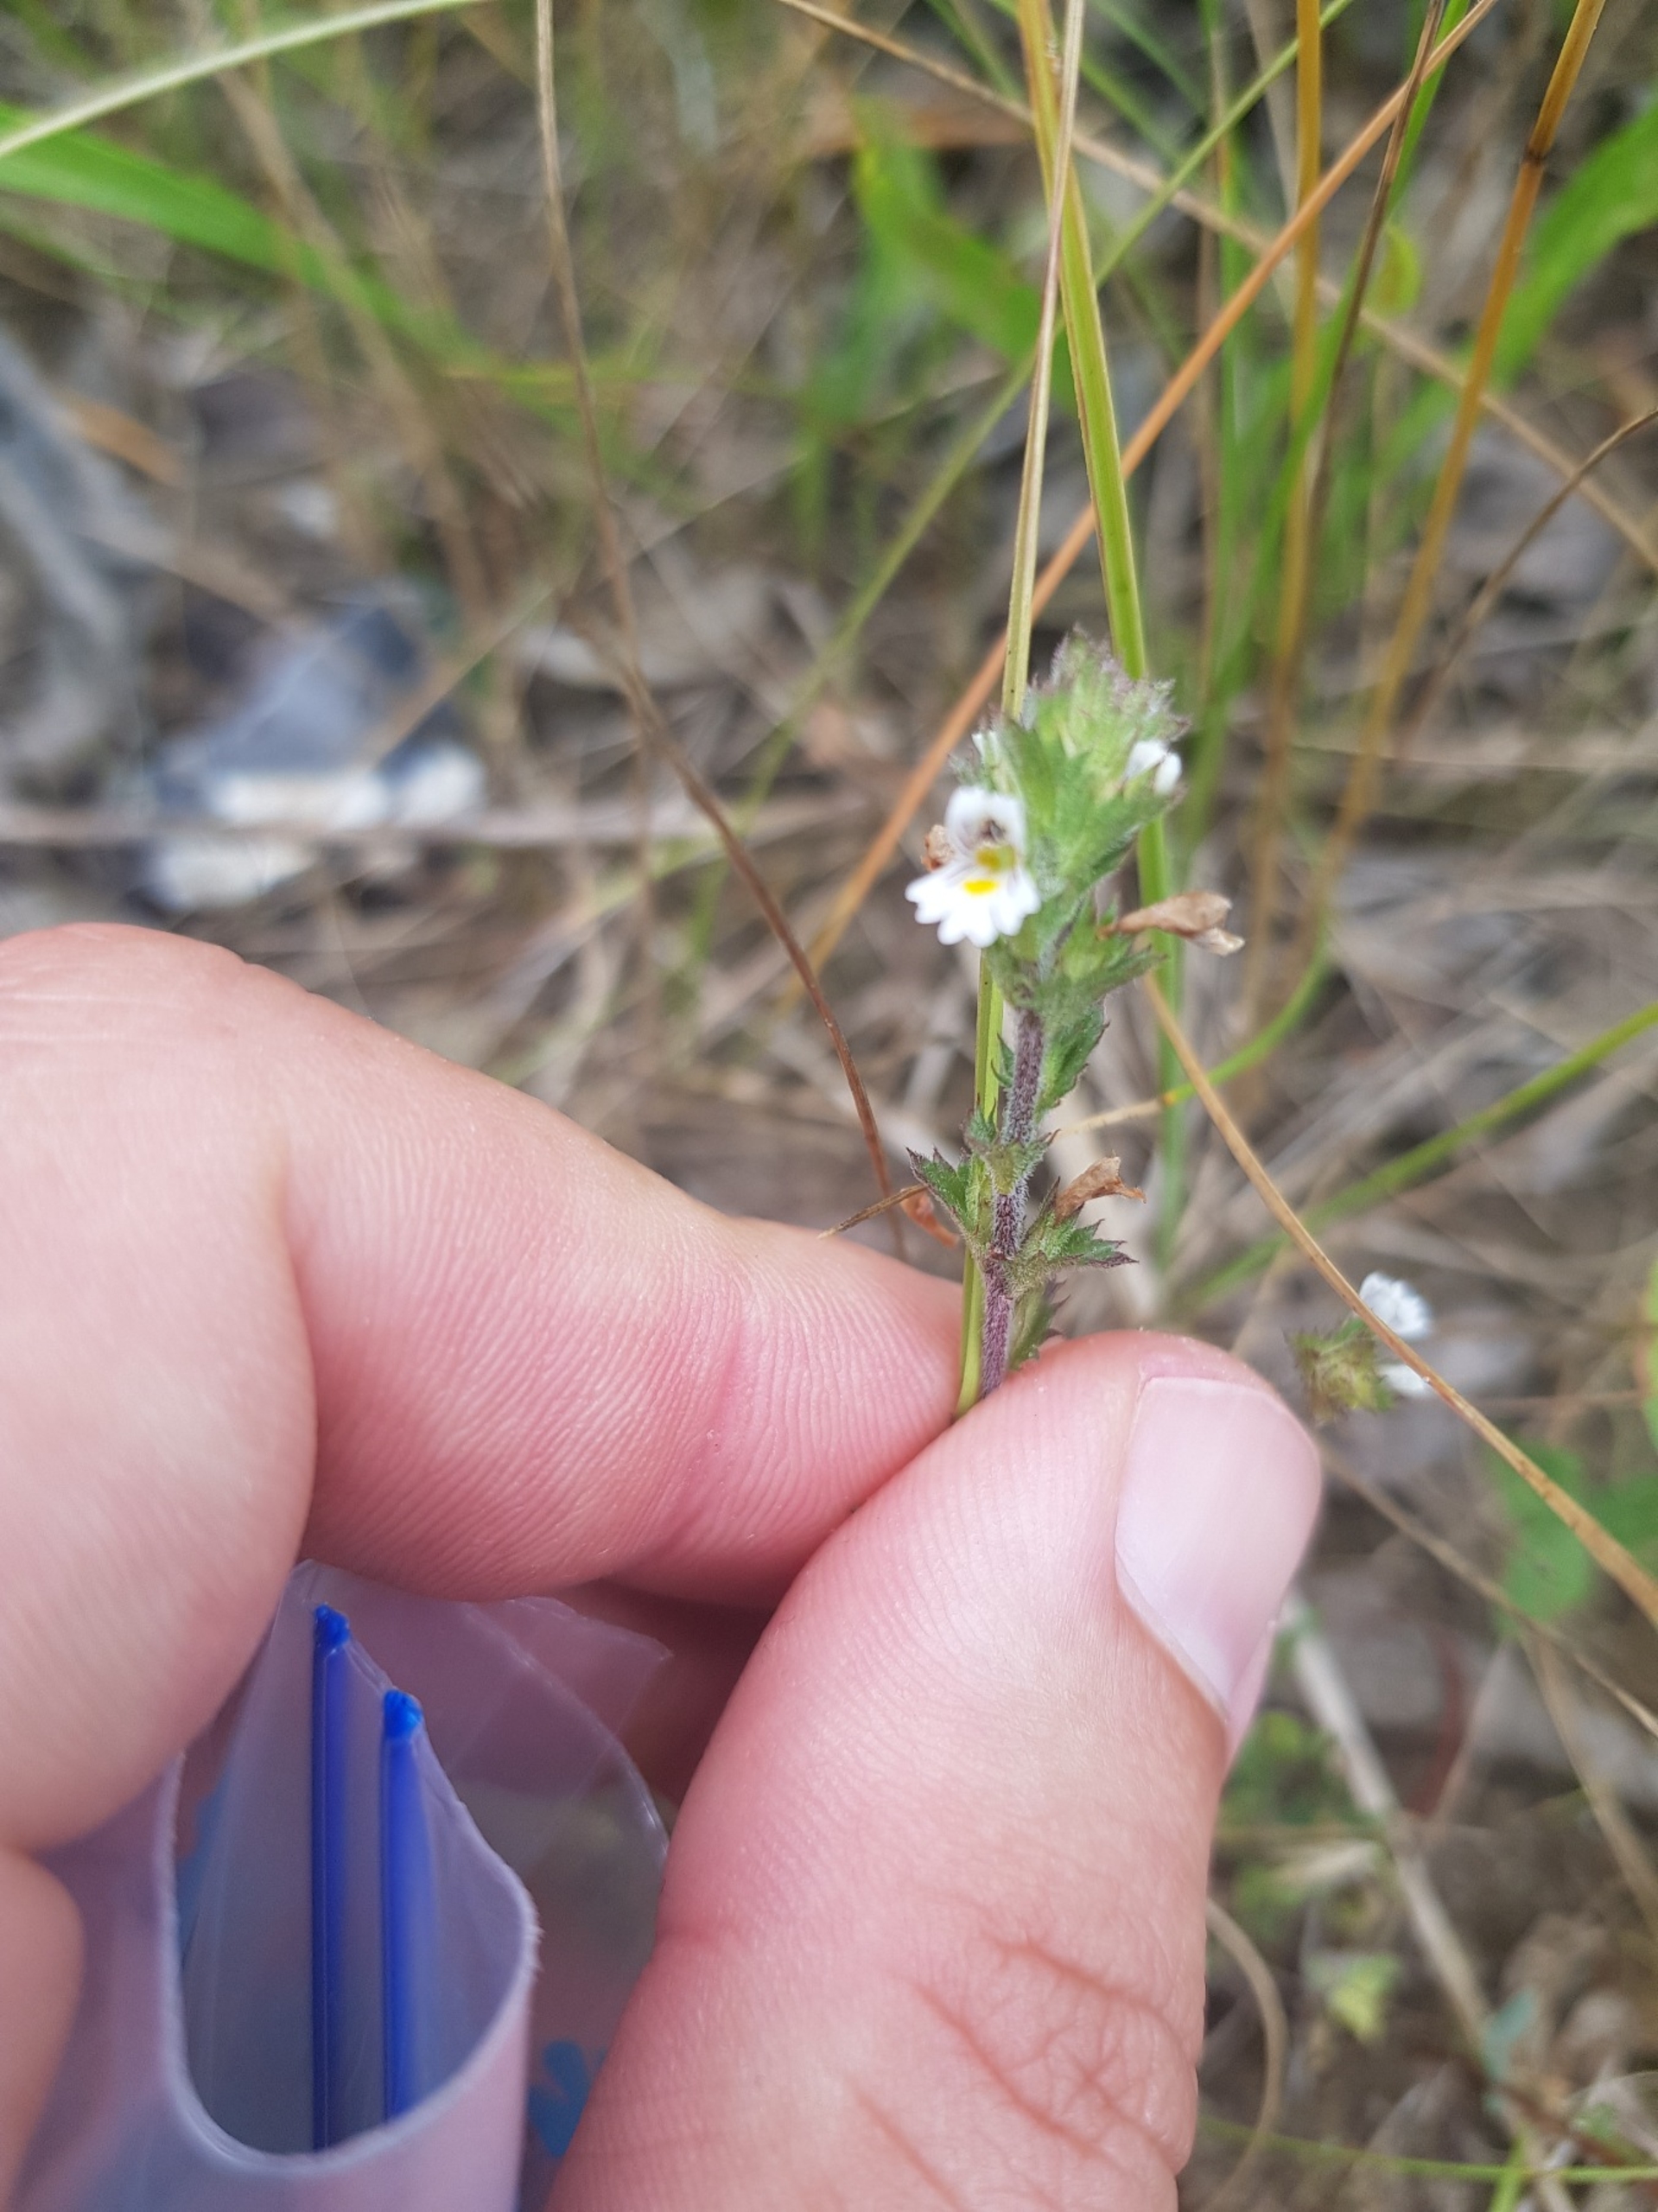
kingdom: Plantae
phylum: Tracheophyta
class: Magnoliopsida
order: Lamiales
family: Orobanchaceae
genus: Euphrasia
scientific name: Euphrasia stricta
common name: Spids øjentrøst
